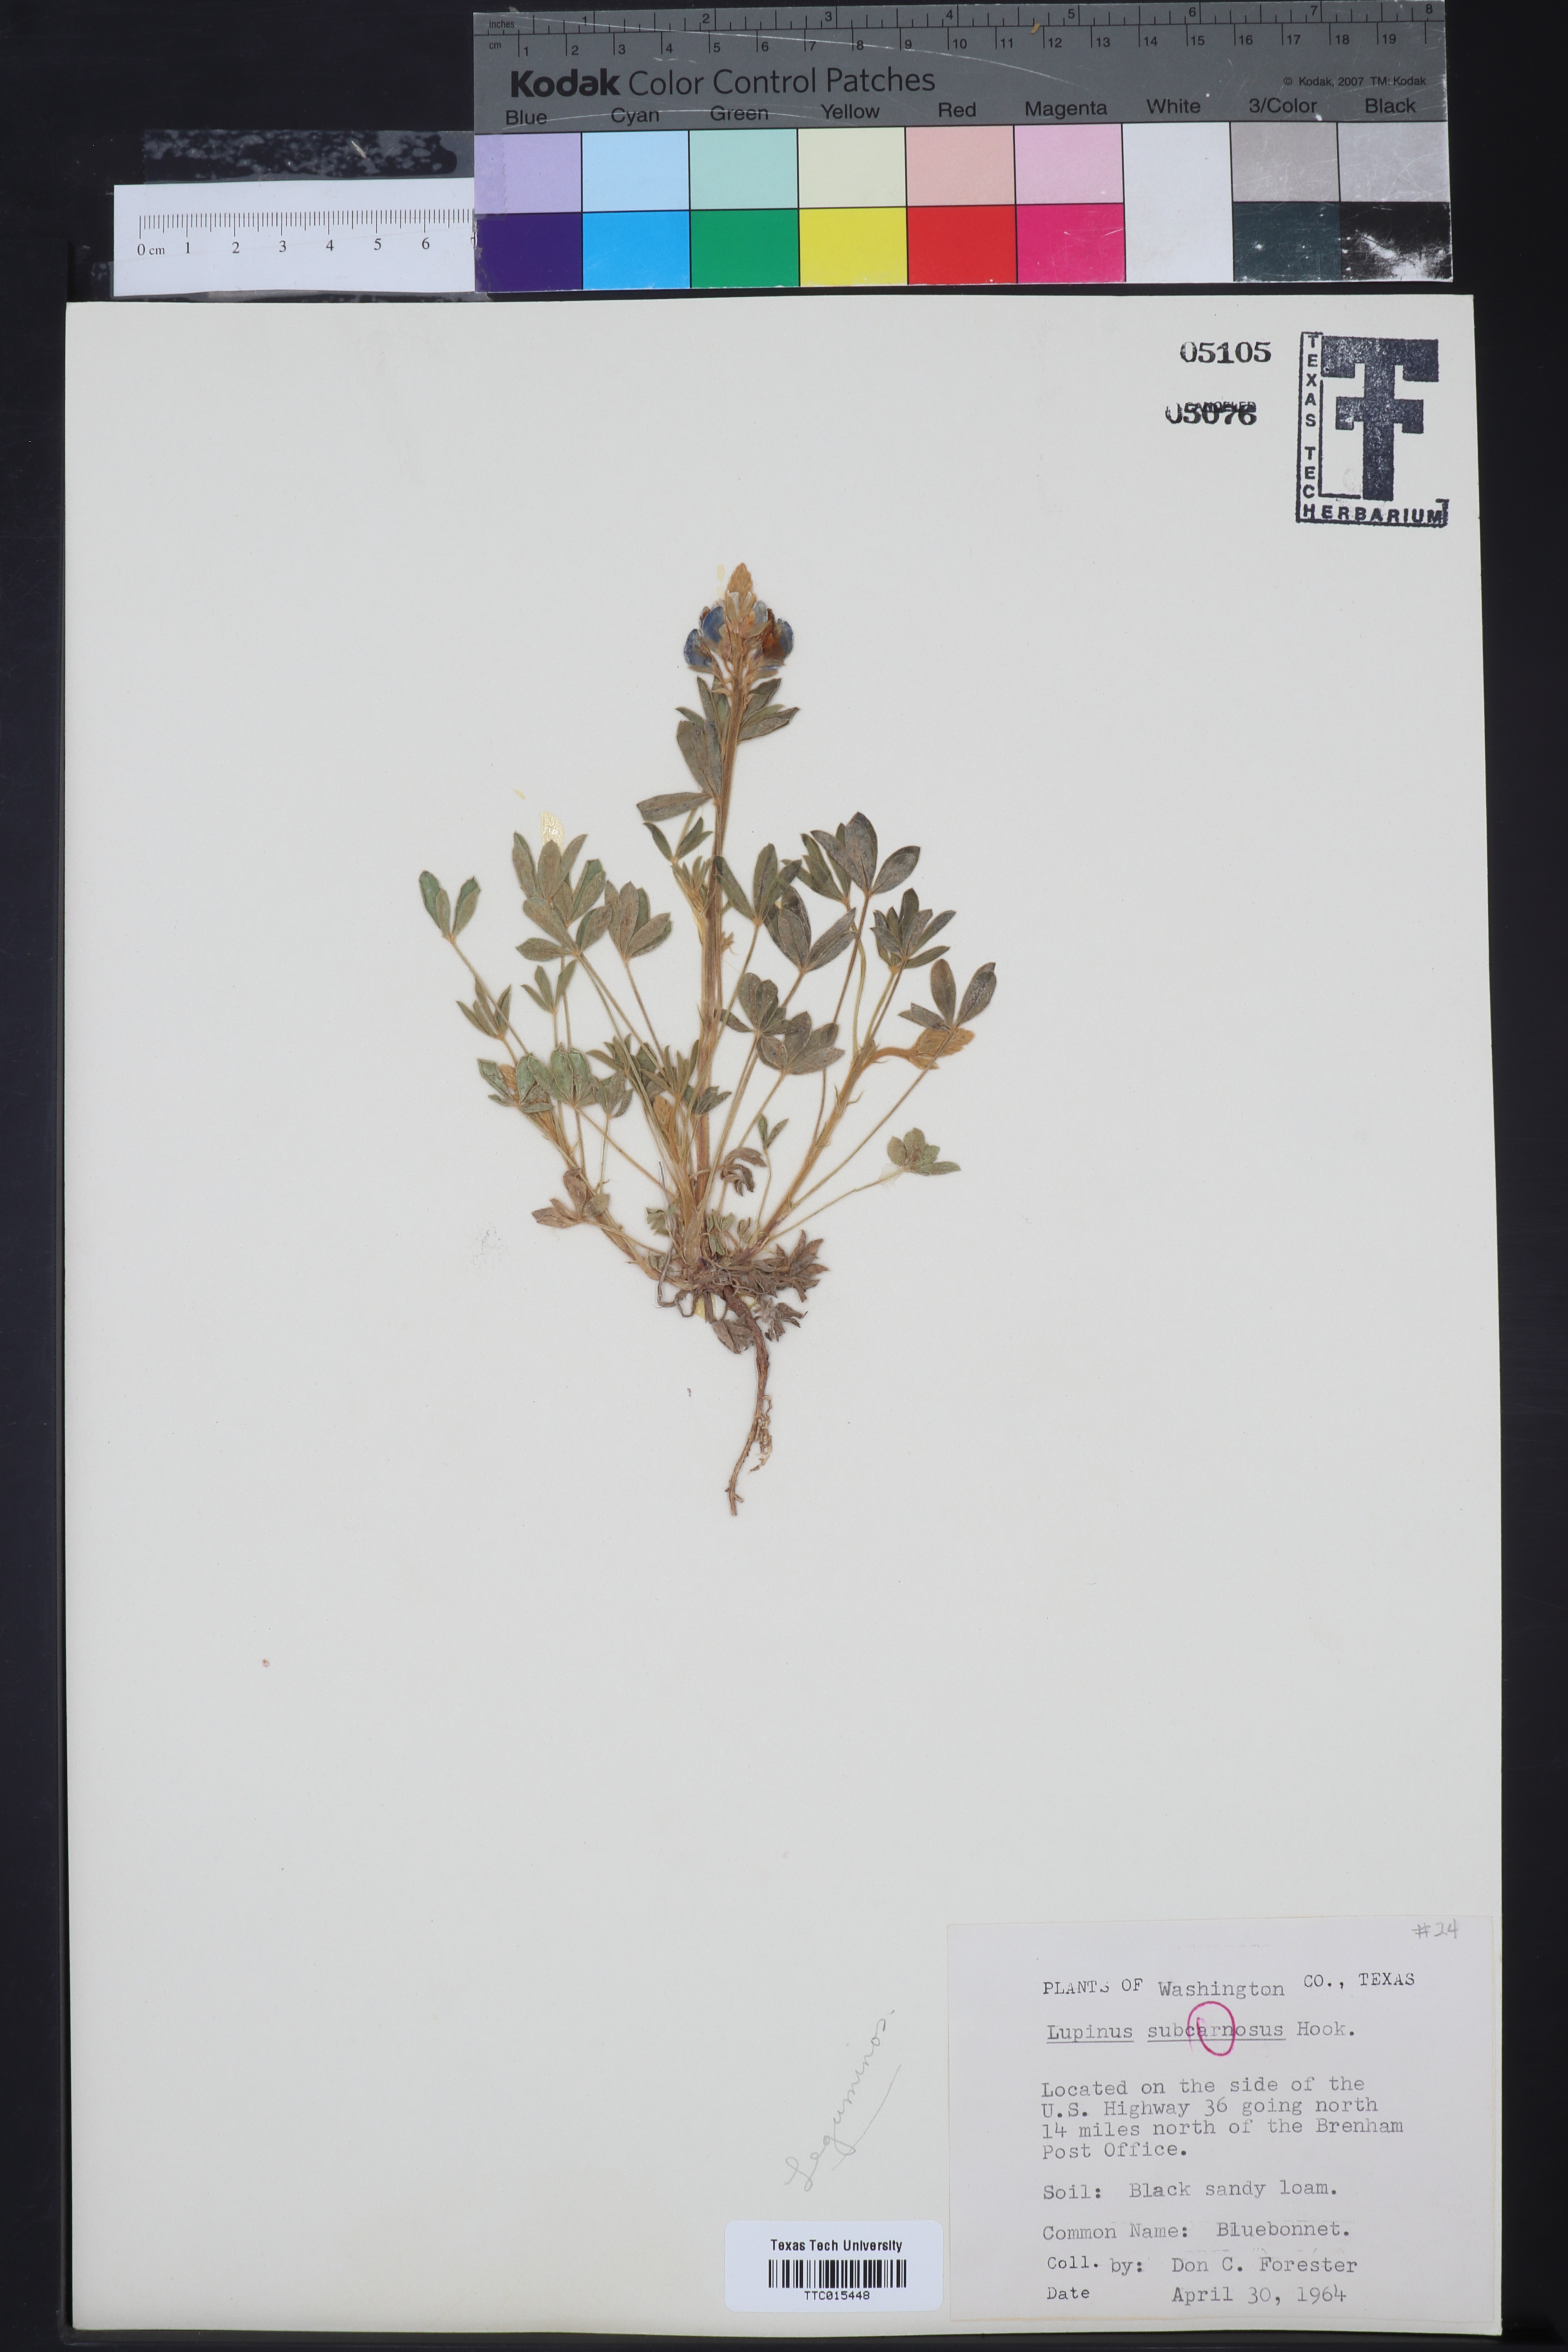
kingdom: Plantae
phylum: Tracheophyta
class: Magnoliopsida
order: Fabales
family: Fabaceae
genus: Lupinus
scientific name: Lupinus subcarnosus
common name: Texas bluebonnet
